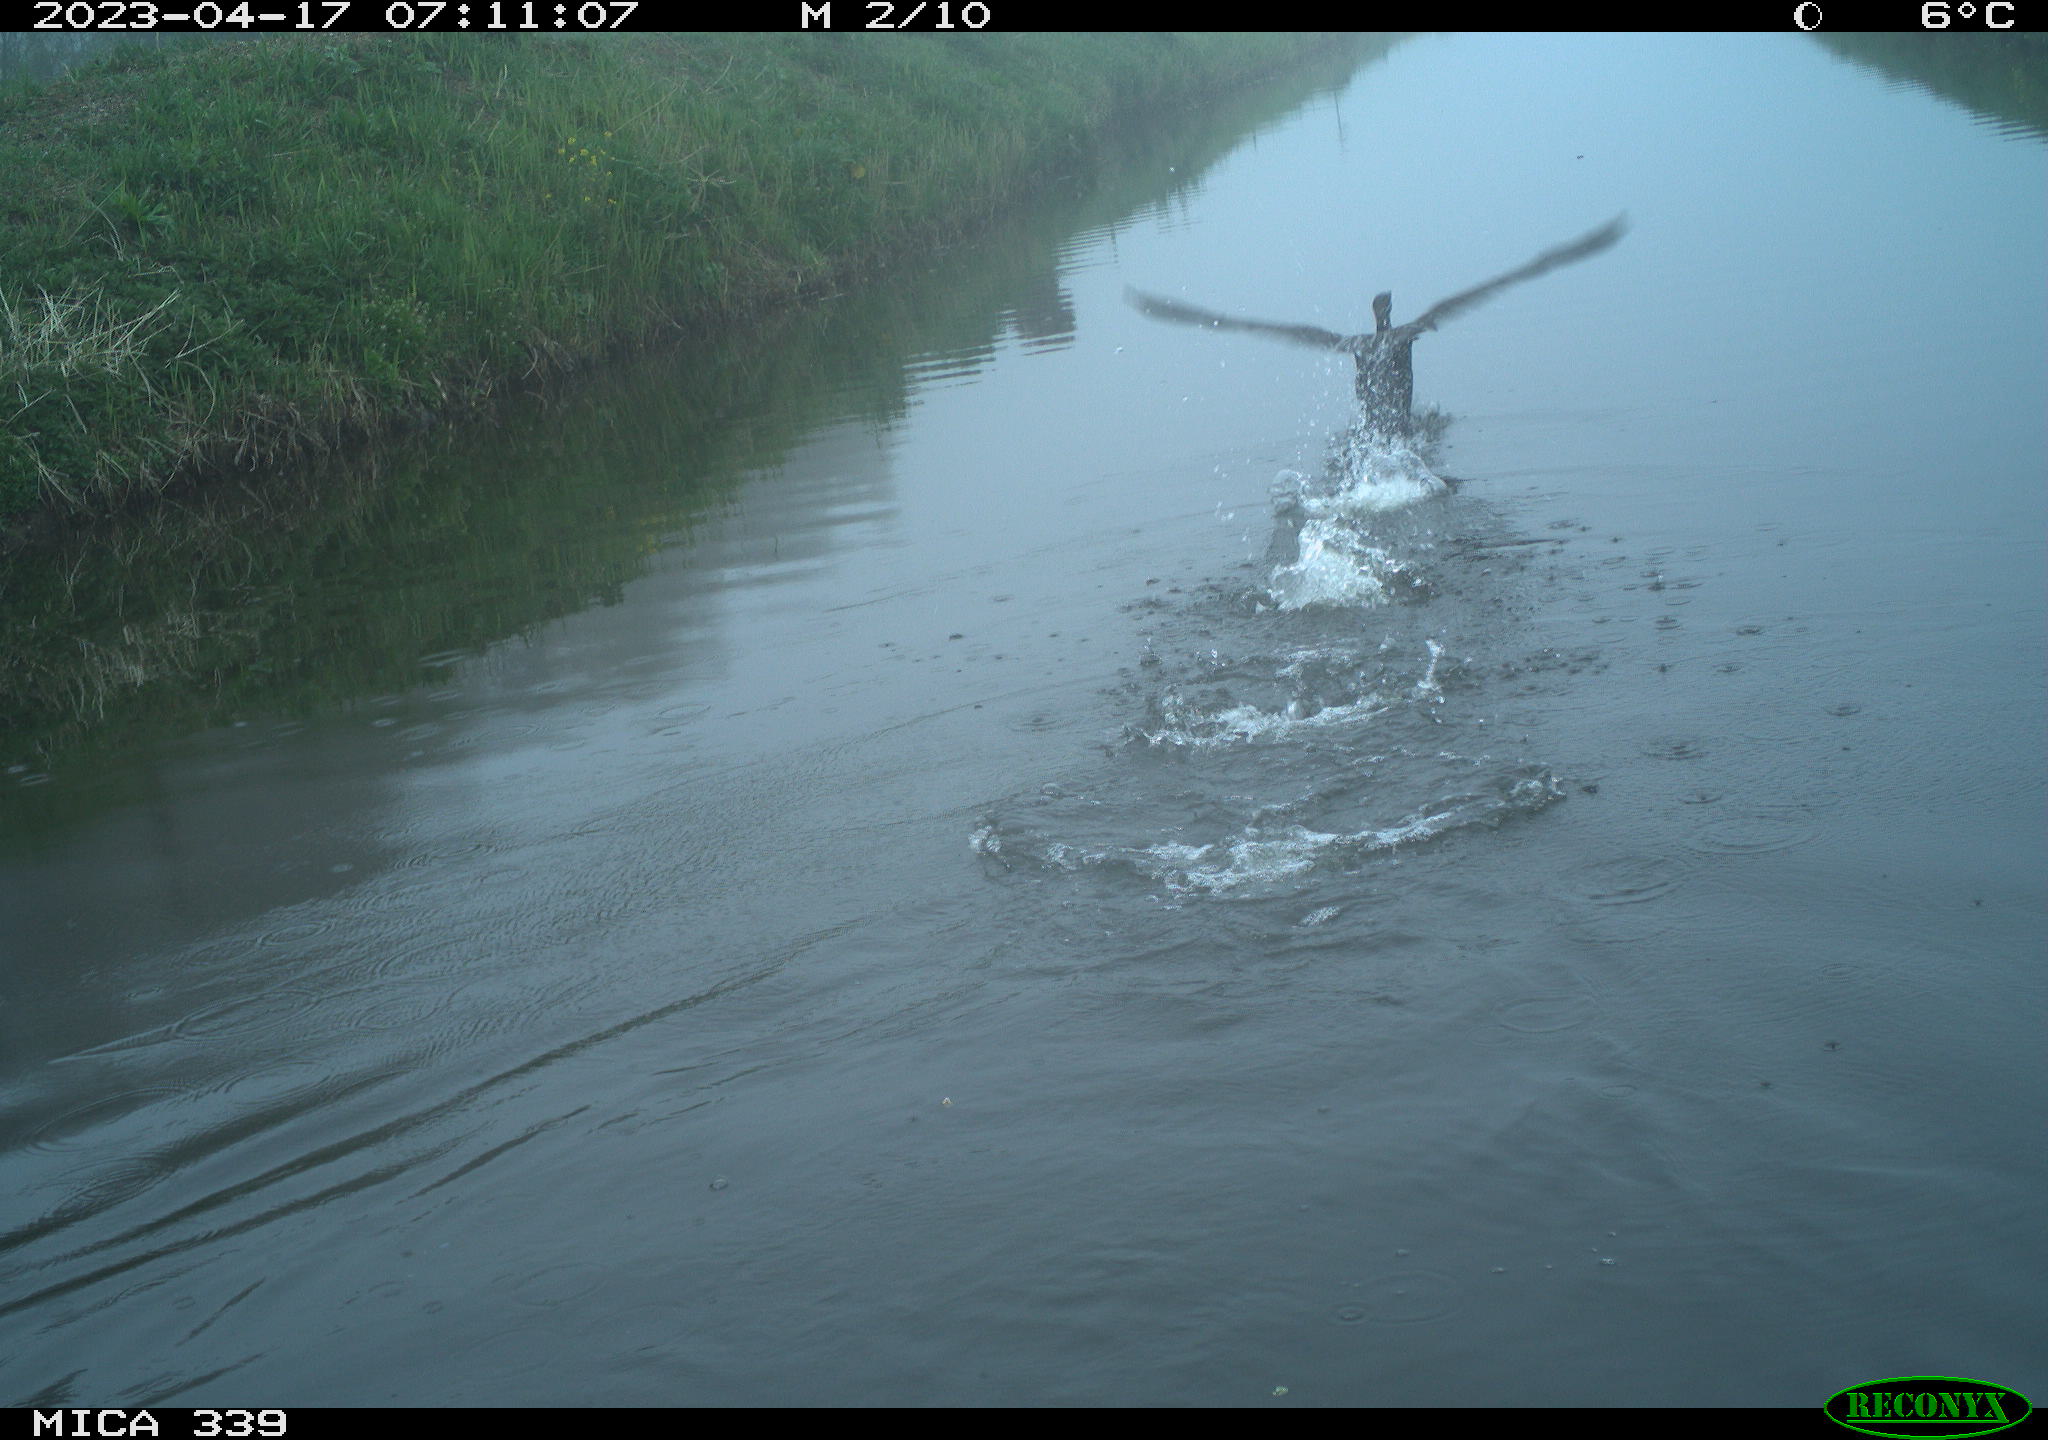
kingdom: Animalia
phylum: Chordata
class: Aves
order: Suliformes
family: Phalacrocoracidae
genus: Phalacrocorax
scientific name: Phalacrocorax carbo
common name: Great cormorant
